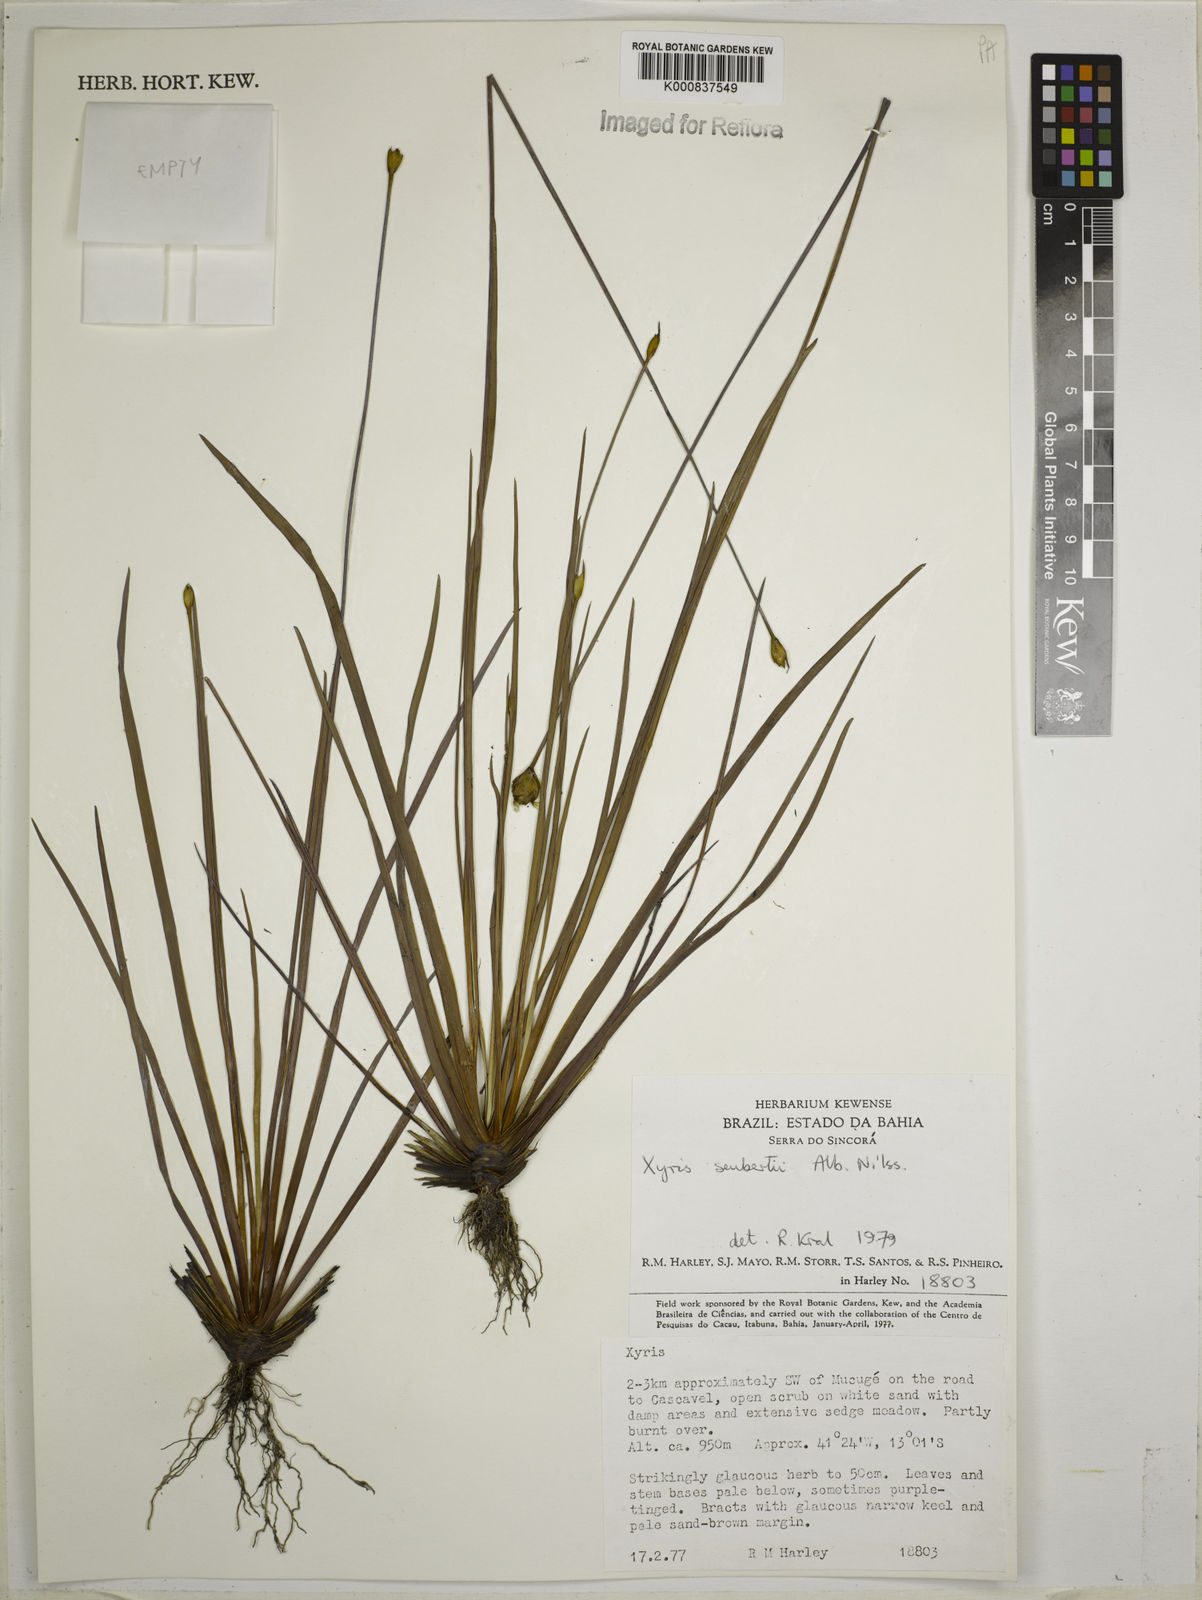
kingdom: Plantae
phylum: Tracheophyta
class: Liliopsida
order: Poales
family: Xyridaceae
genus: Xyris
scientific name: Xyris seubertii
